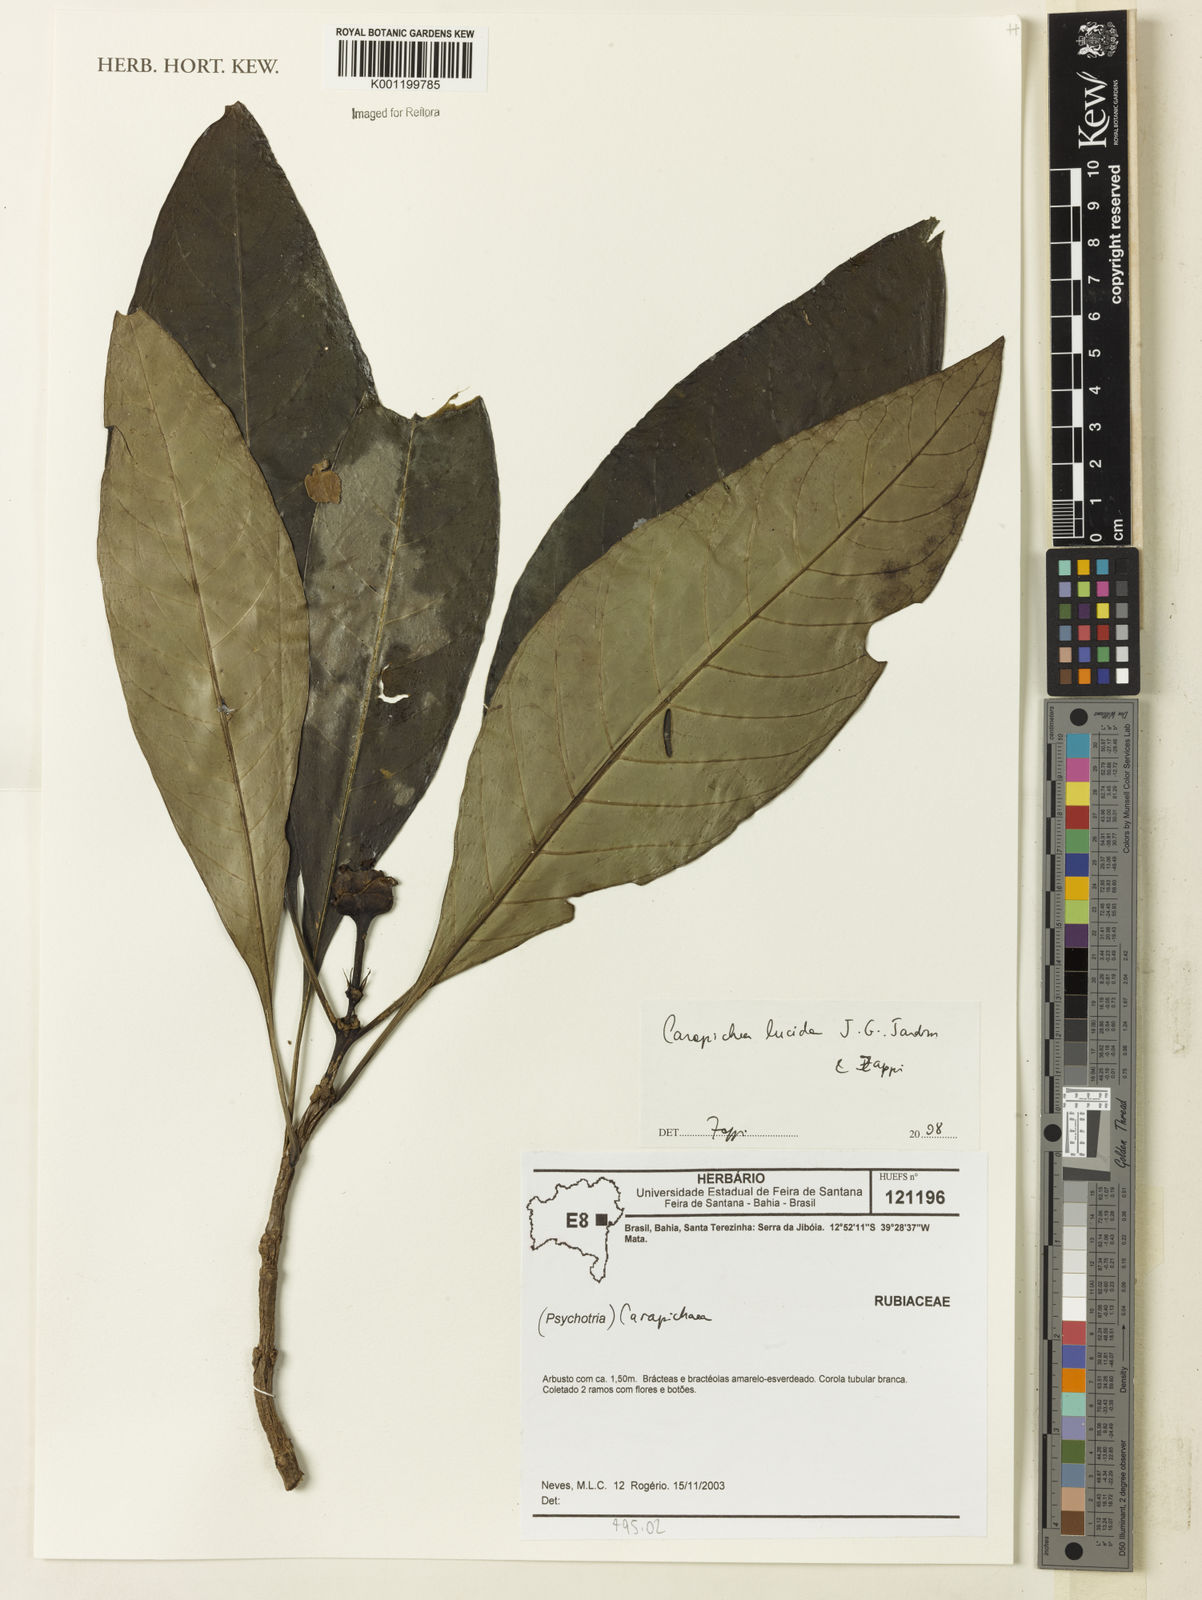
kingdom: Plantae
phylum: Tracheophyta
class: Magnoliopsida
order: Gentianales
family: Rubiaceae
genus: Carapichea
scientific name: Carapichea lucida
